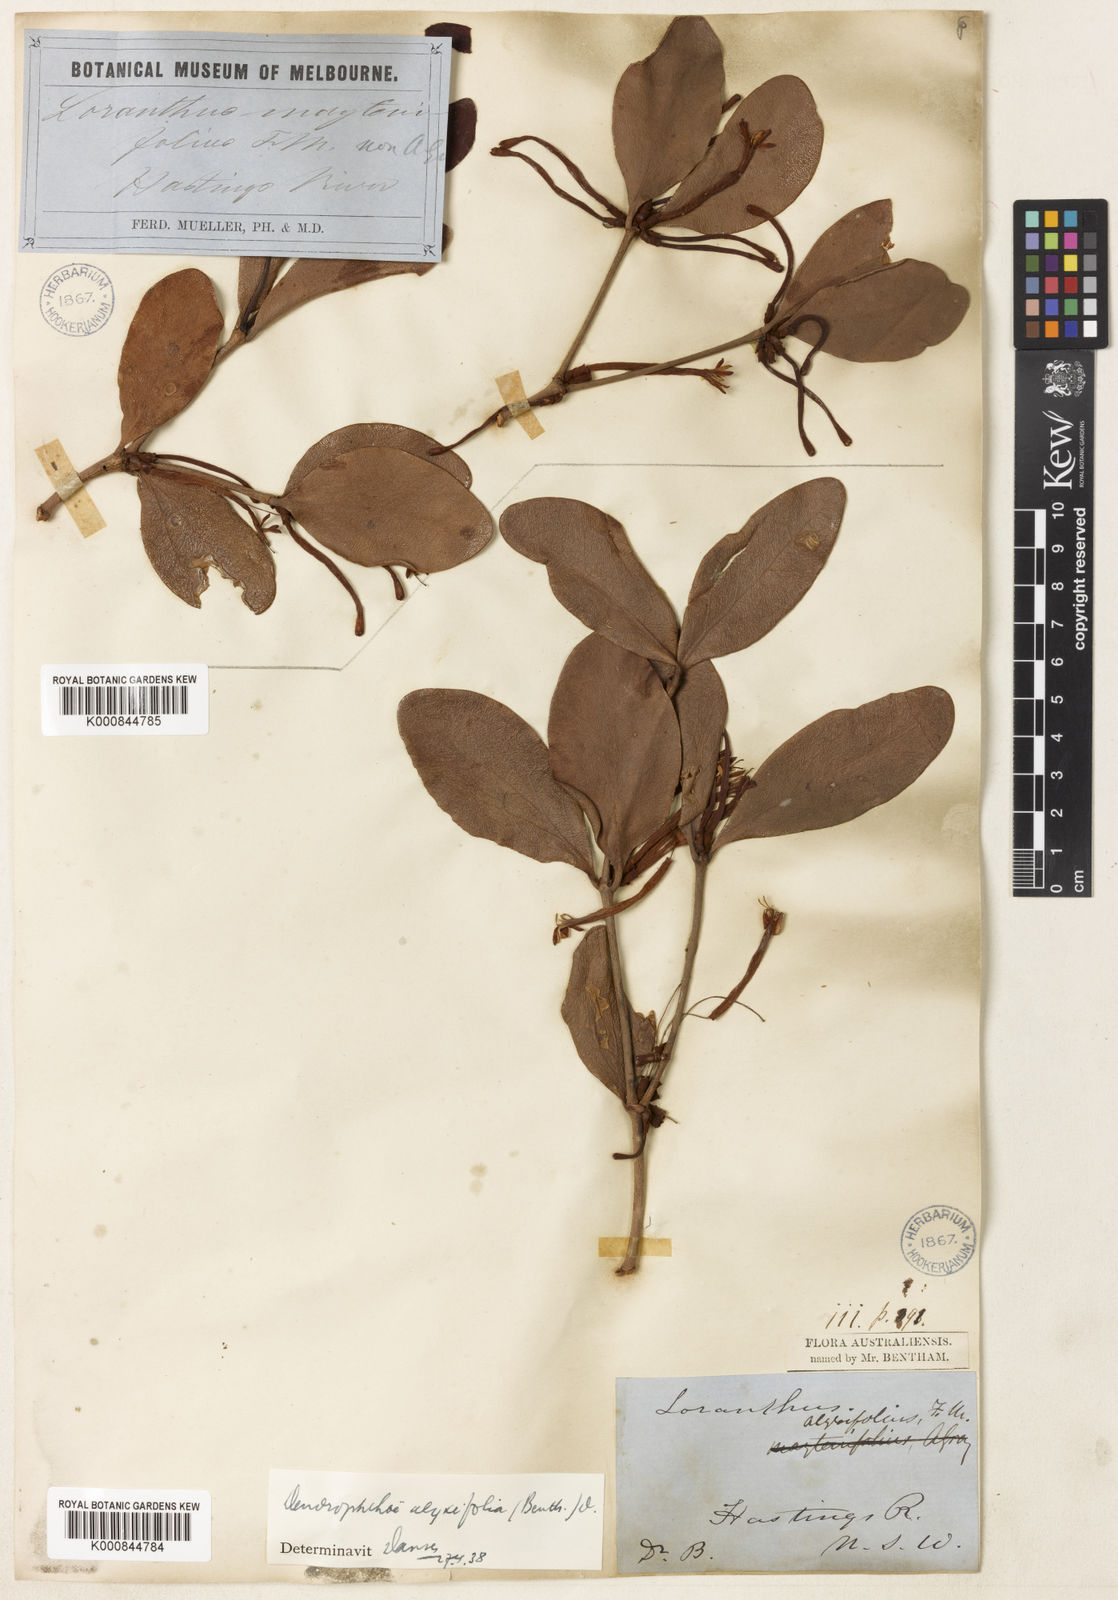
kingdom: Plantae
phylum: Tracheophyta
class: Magnoliopsida
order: Santalales
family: Loranthaceae
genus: Benthamina
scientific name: Benthamina alyxifolia
